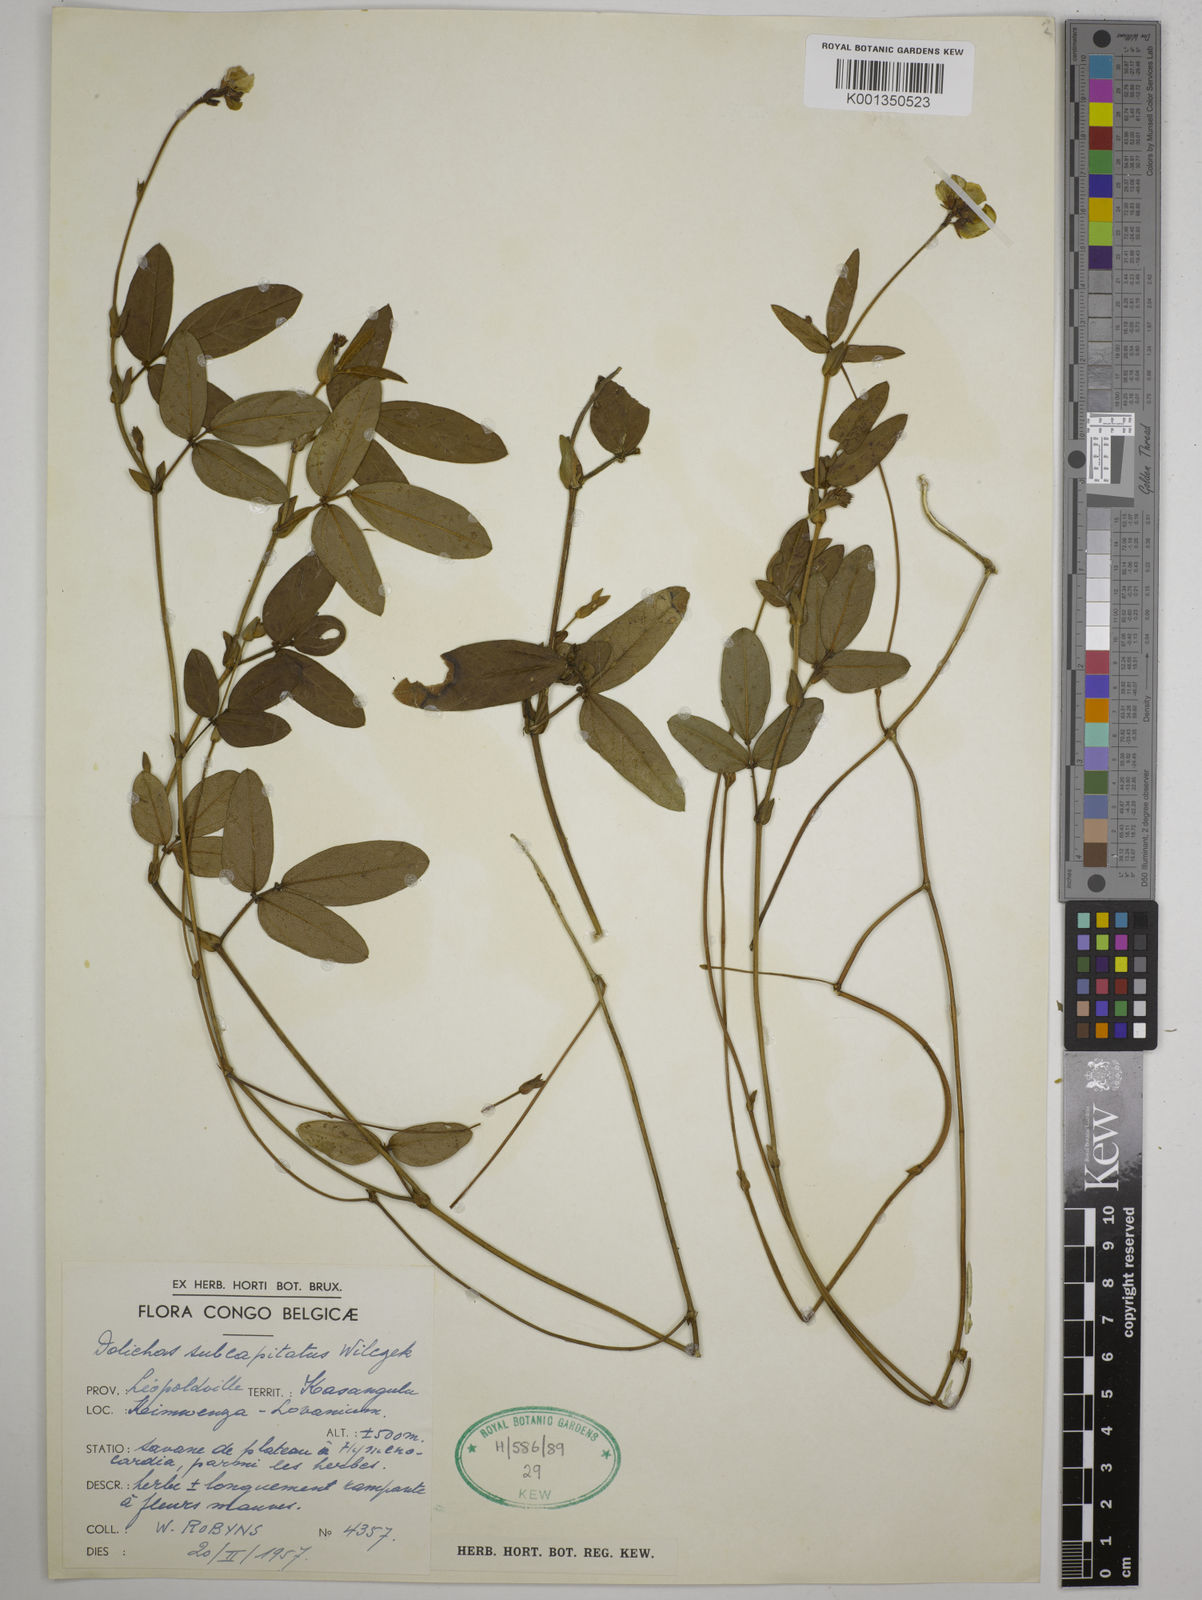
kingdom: Plantae
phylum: Tracheophyta
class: Magnoliopsida
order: Fabales
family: Fabaceae
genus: Psophocarpus
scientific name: Psophocarpus scandens
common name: Tropical african winged-bean
